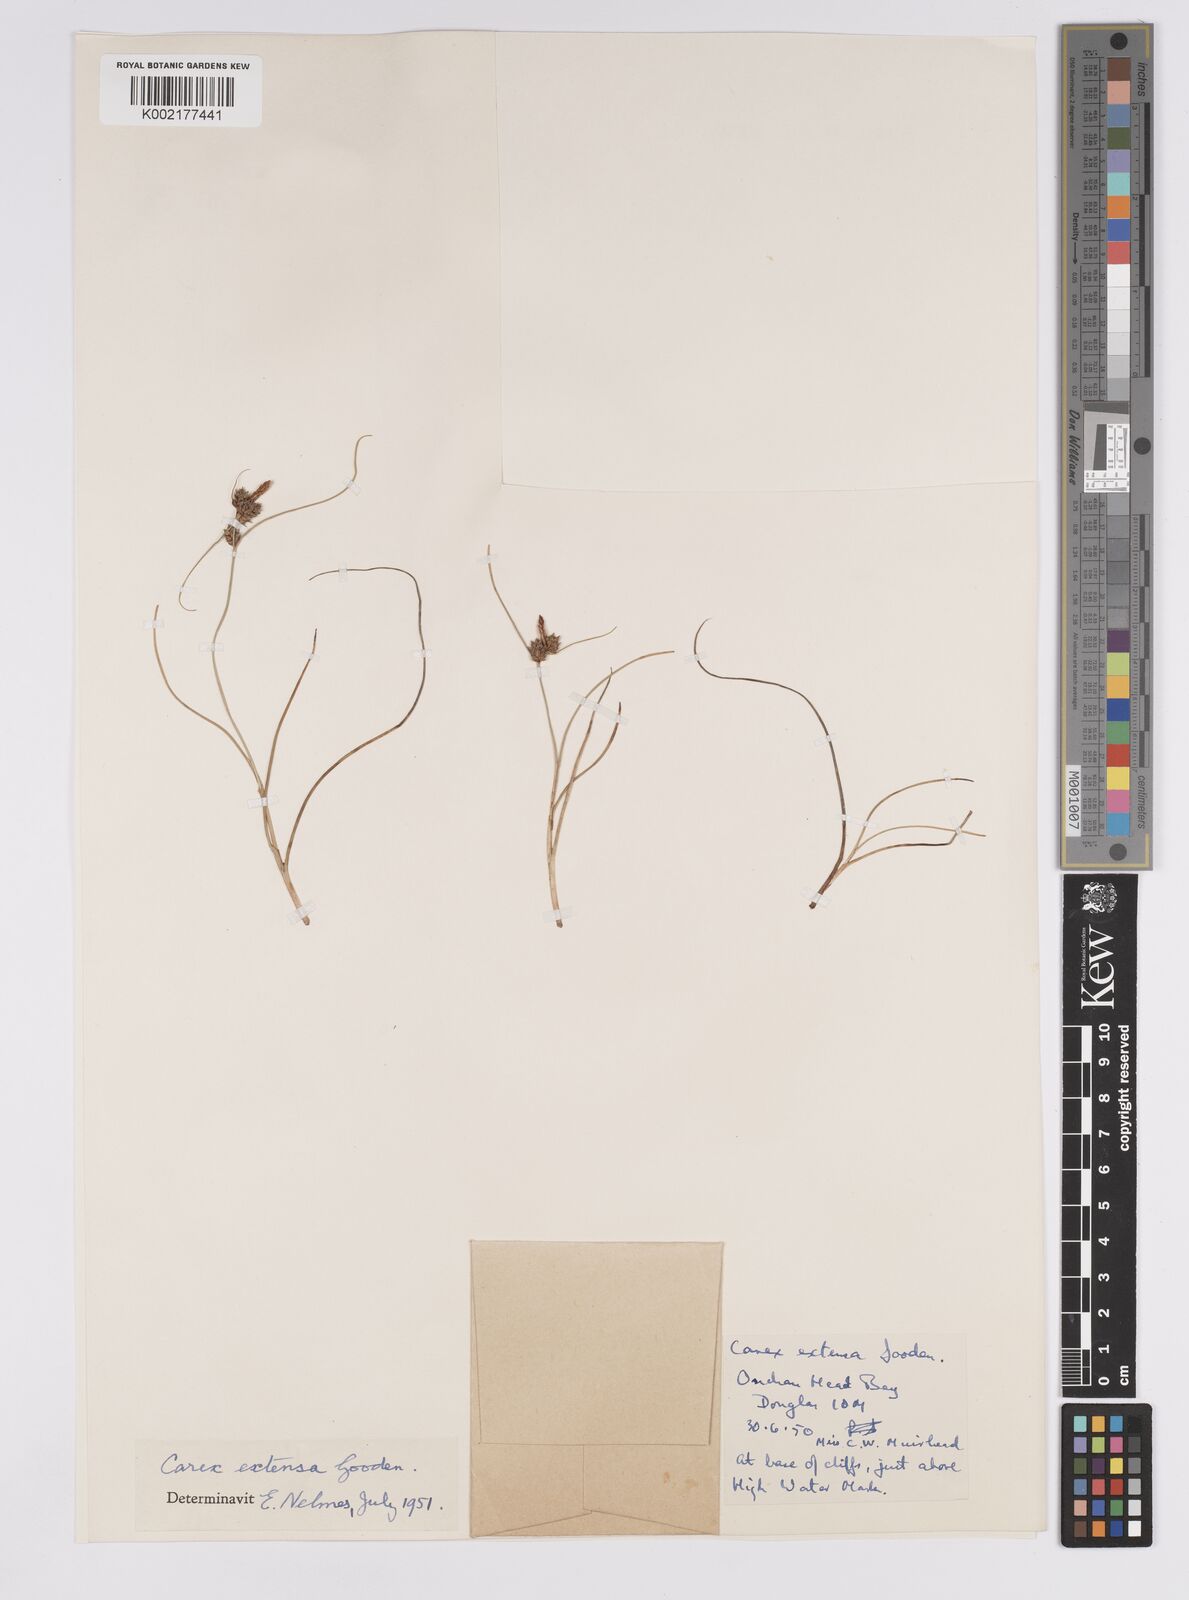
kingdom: Plantae
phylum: Tracheophyta
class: Liliopsida
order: Poales
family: Cyperaceae
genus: Carex
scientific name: Carex extensa
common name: Long-bracted sedge
